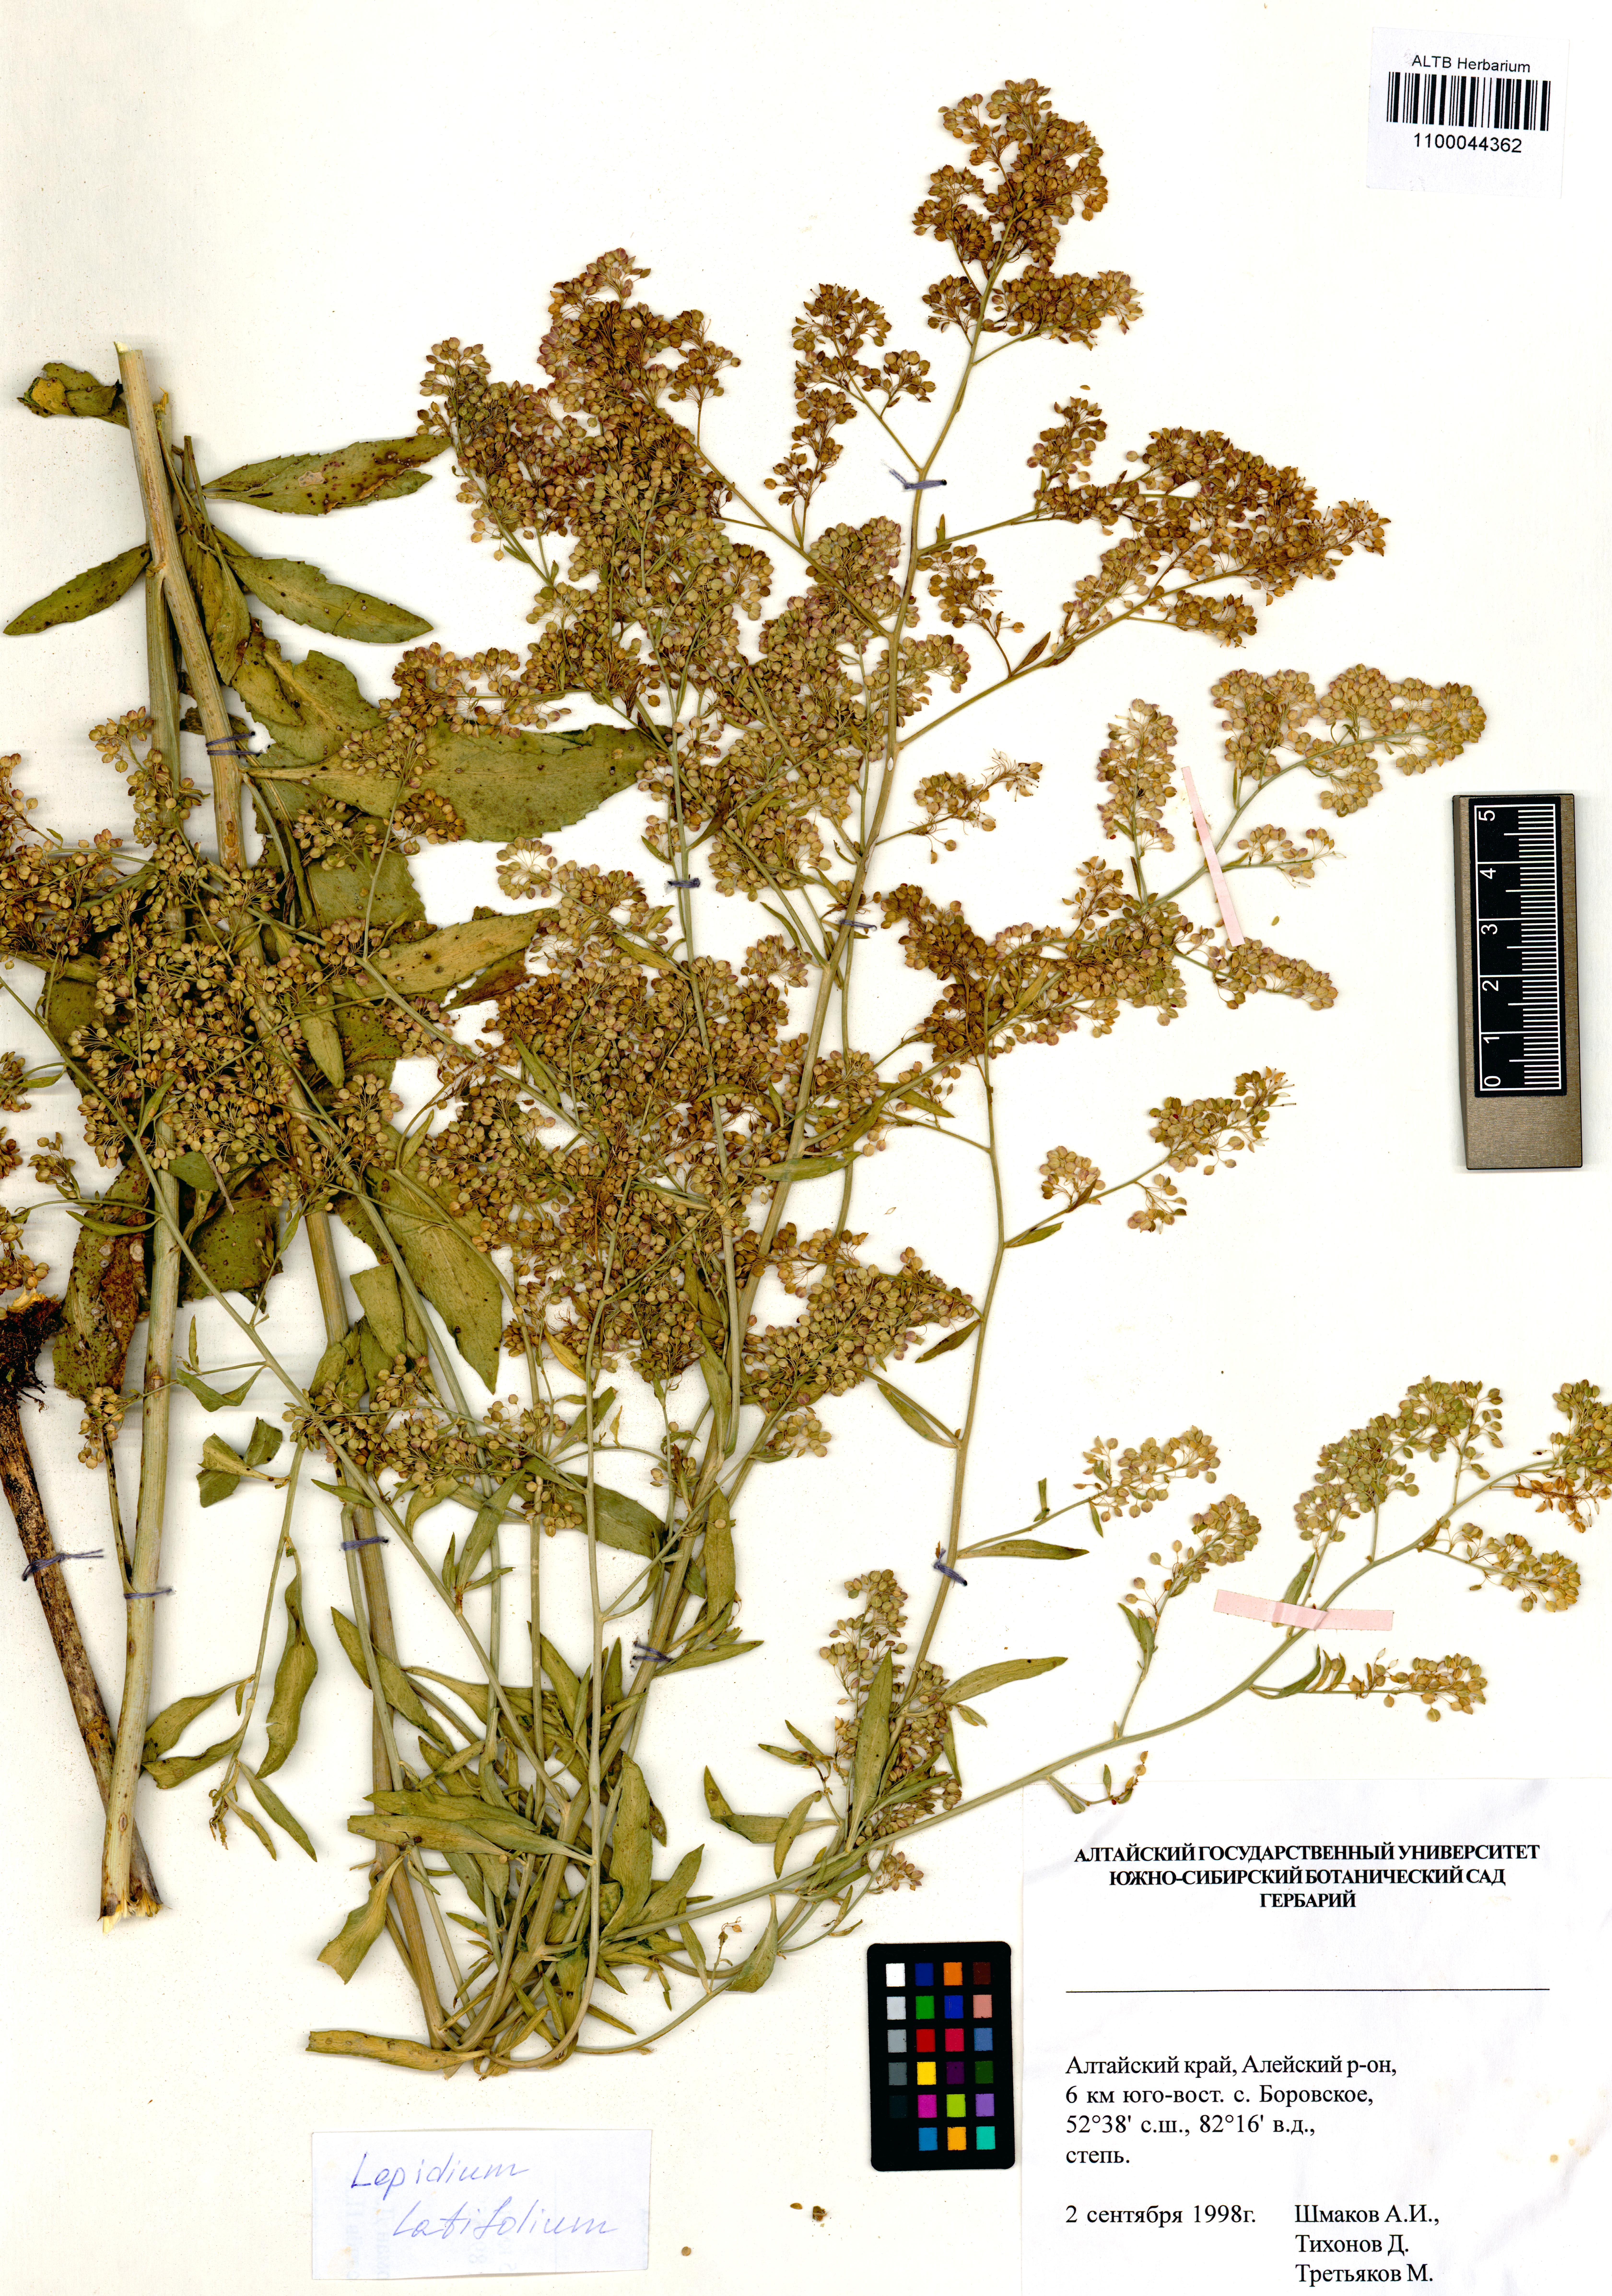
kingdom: Plantae
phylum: Tracheophyta
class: Magnoliopsida
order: Brassicales
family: Brassicaceae
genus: Lepidium
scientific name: Lepidium latifolium
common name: Dittander
